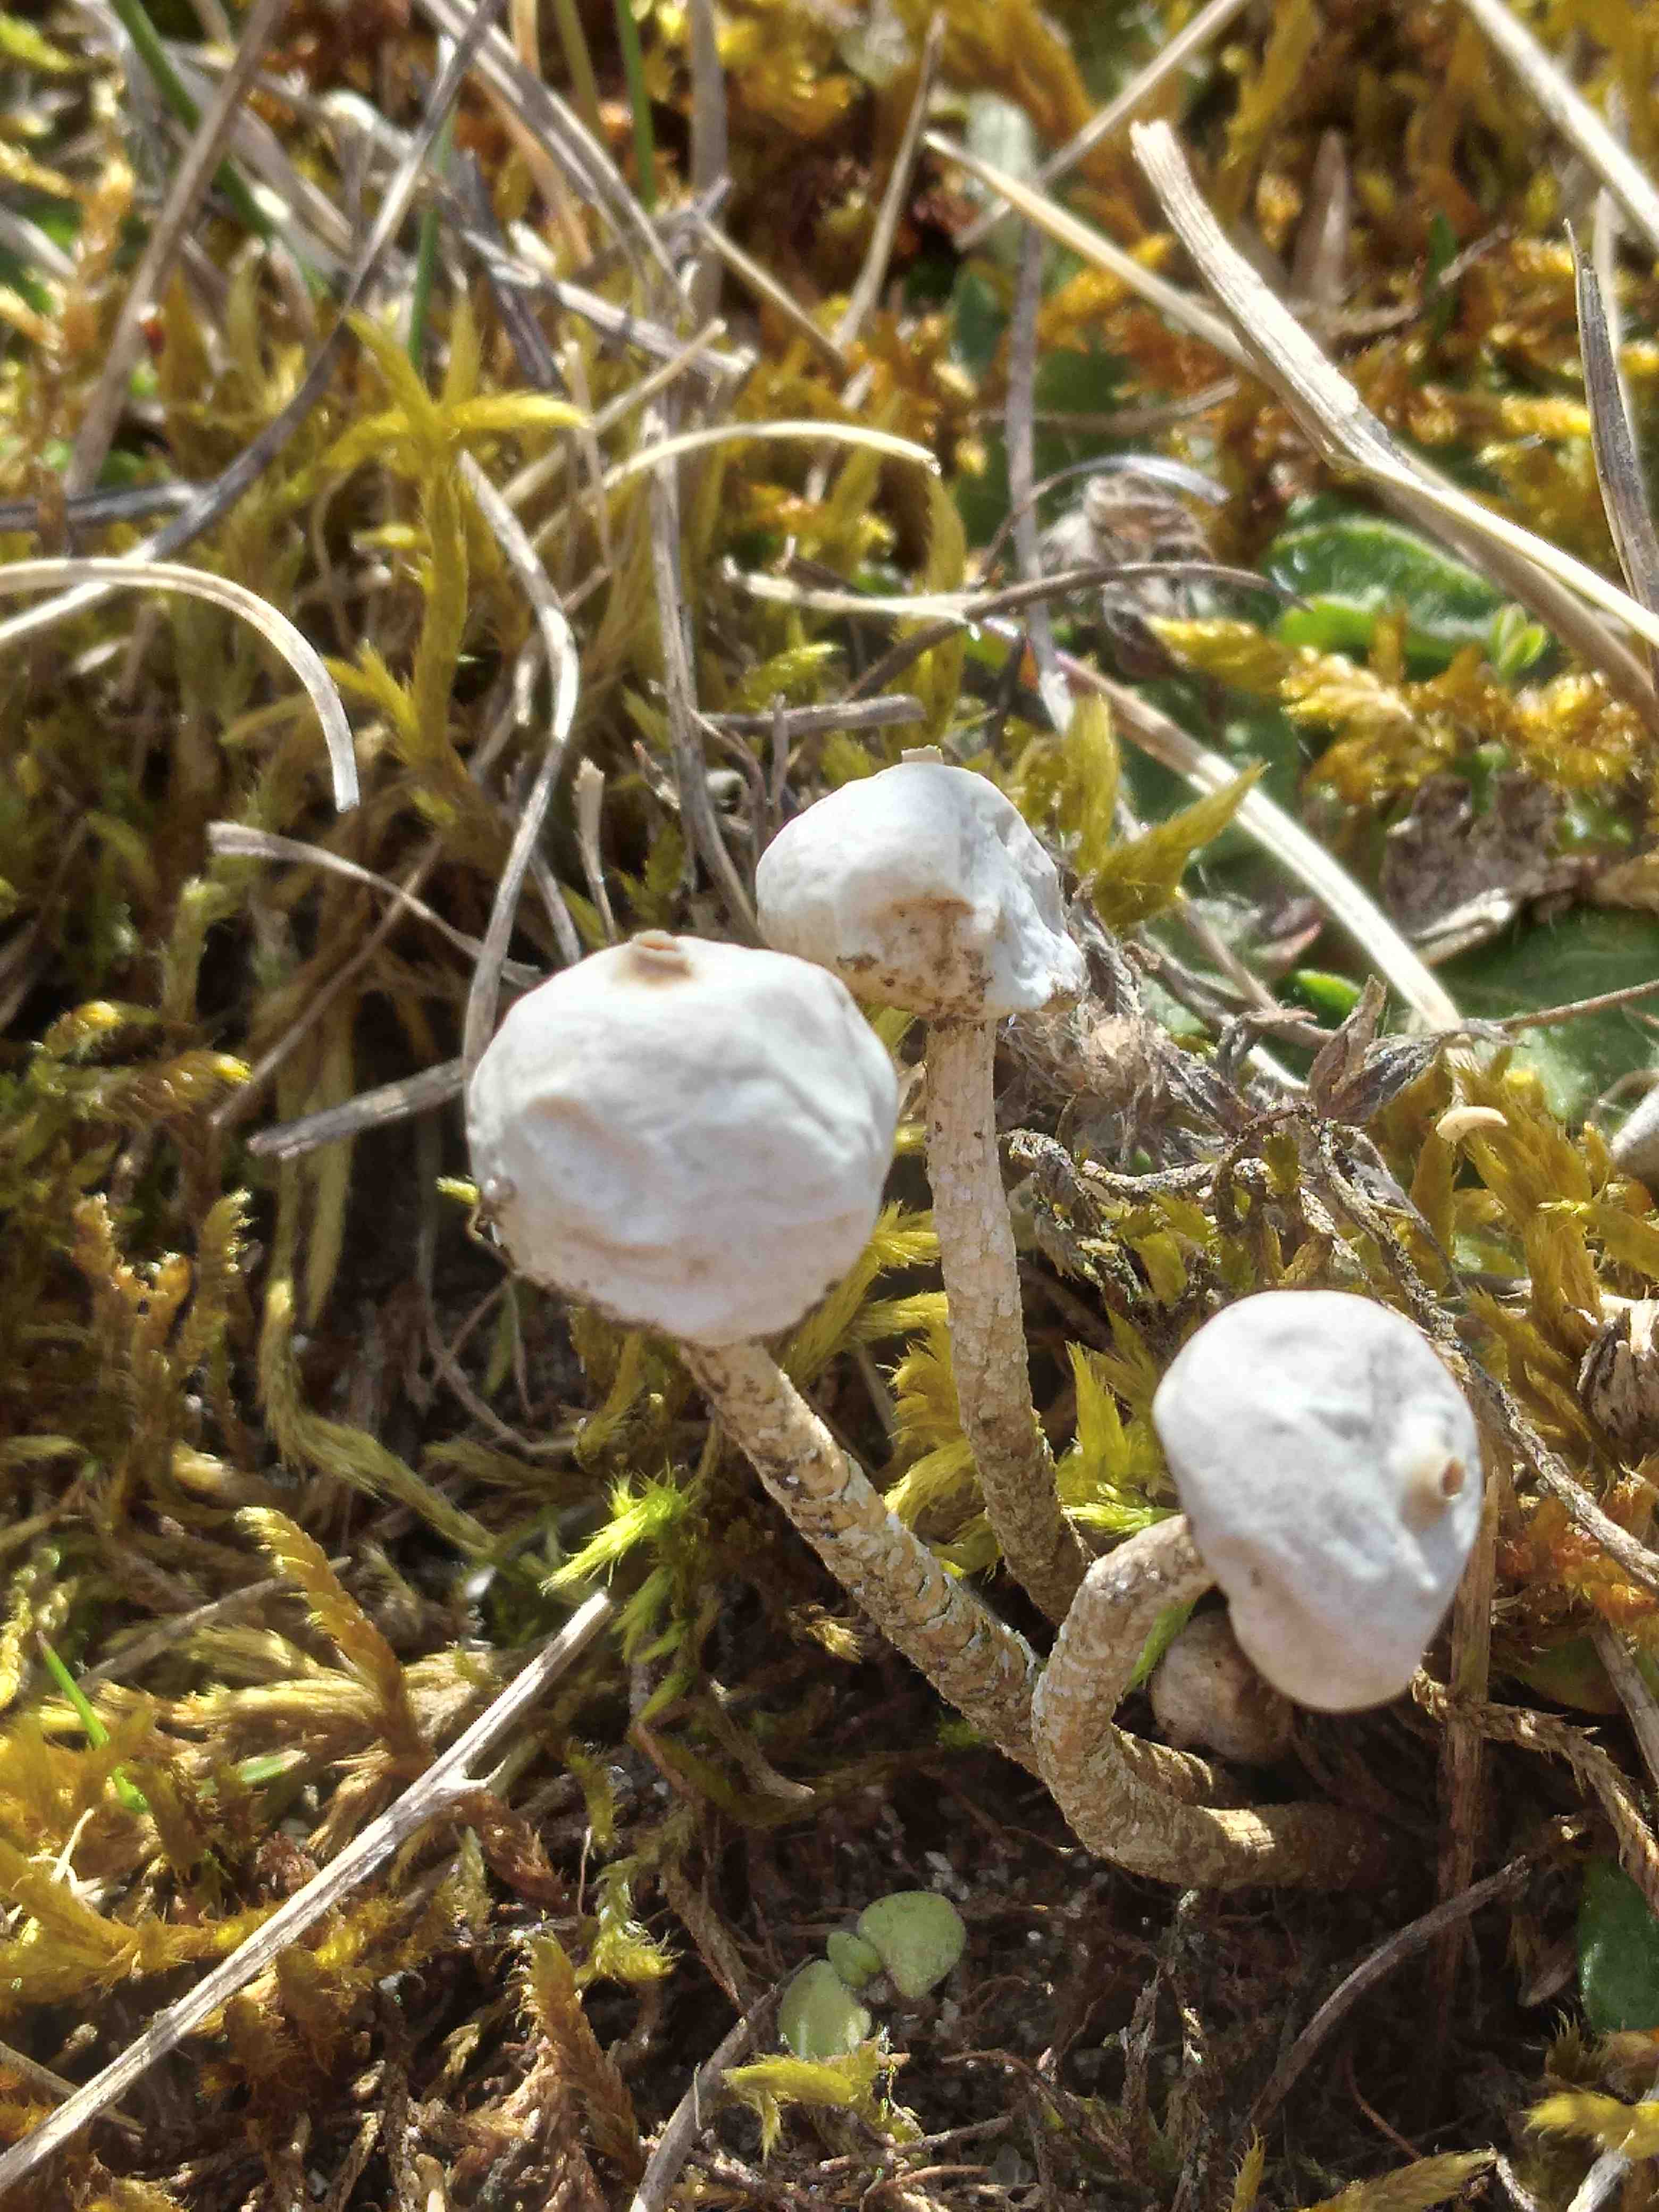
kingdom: Fungi
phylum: Basidiomycota
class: Agaricomycetes
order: Agaricales
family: Agaricaceae
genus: Tulostoma
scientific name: Tulostoma brumale
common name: vinter-stilkbovist
